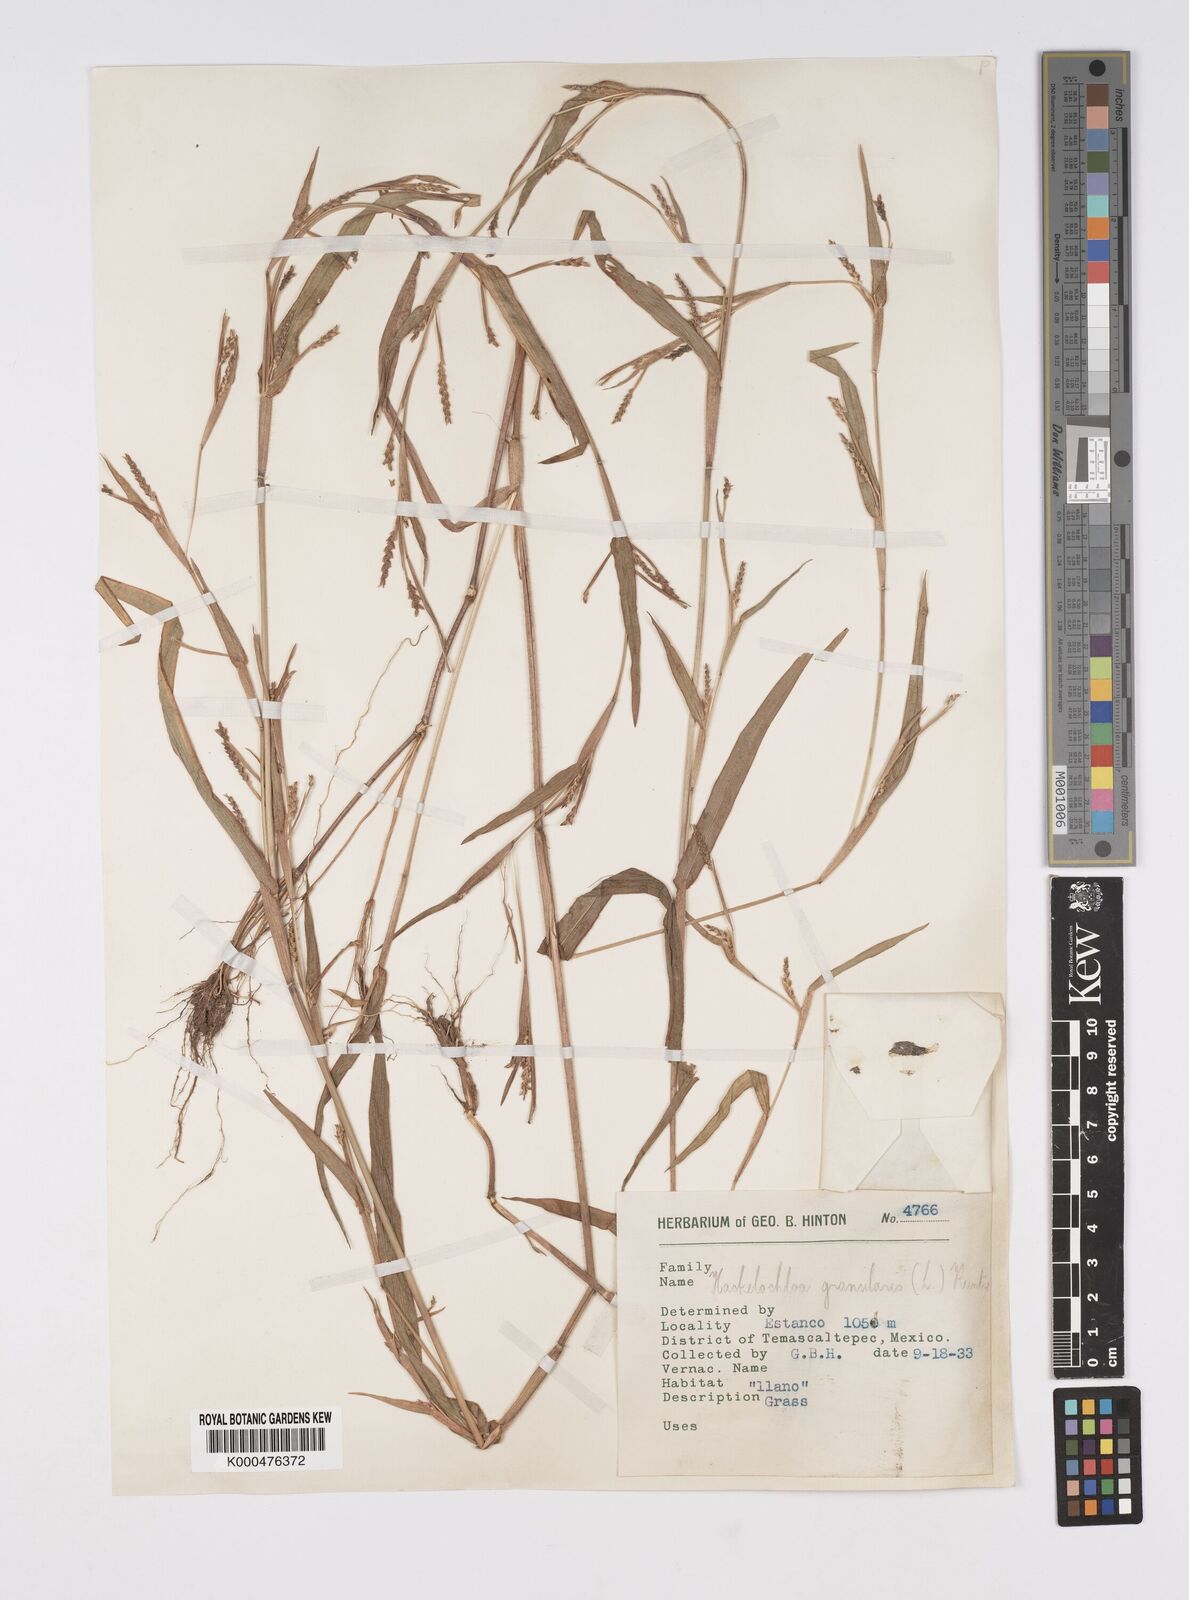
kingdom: Plantae
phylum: Tracheophyta
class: Liliopsida
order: Poales
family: Poaceae
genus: Hackelochloa
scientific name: Hackelochloa granularis
